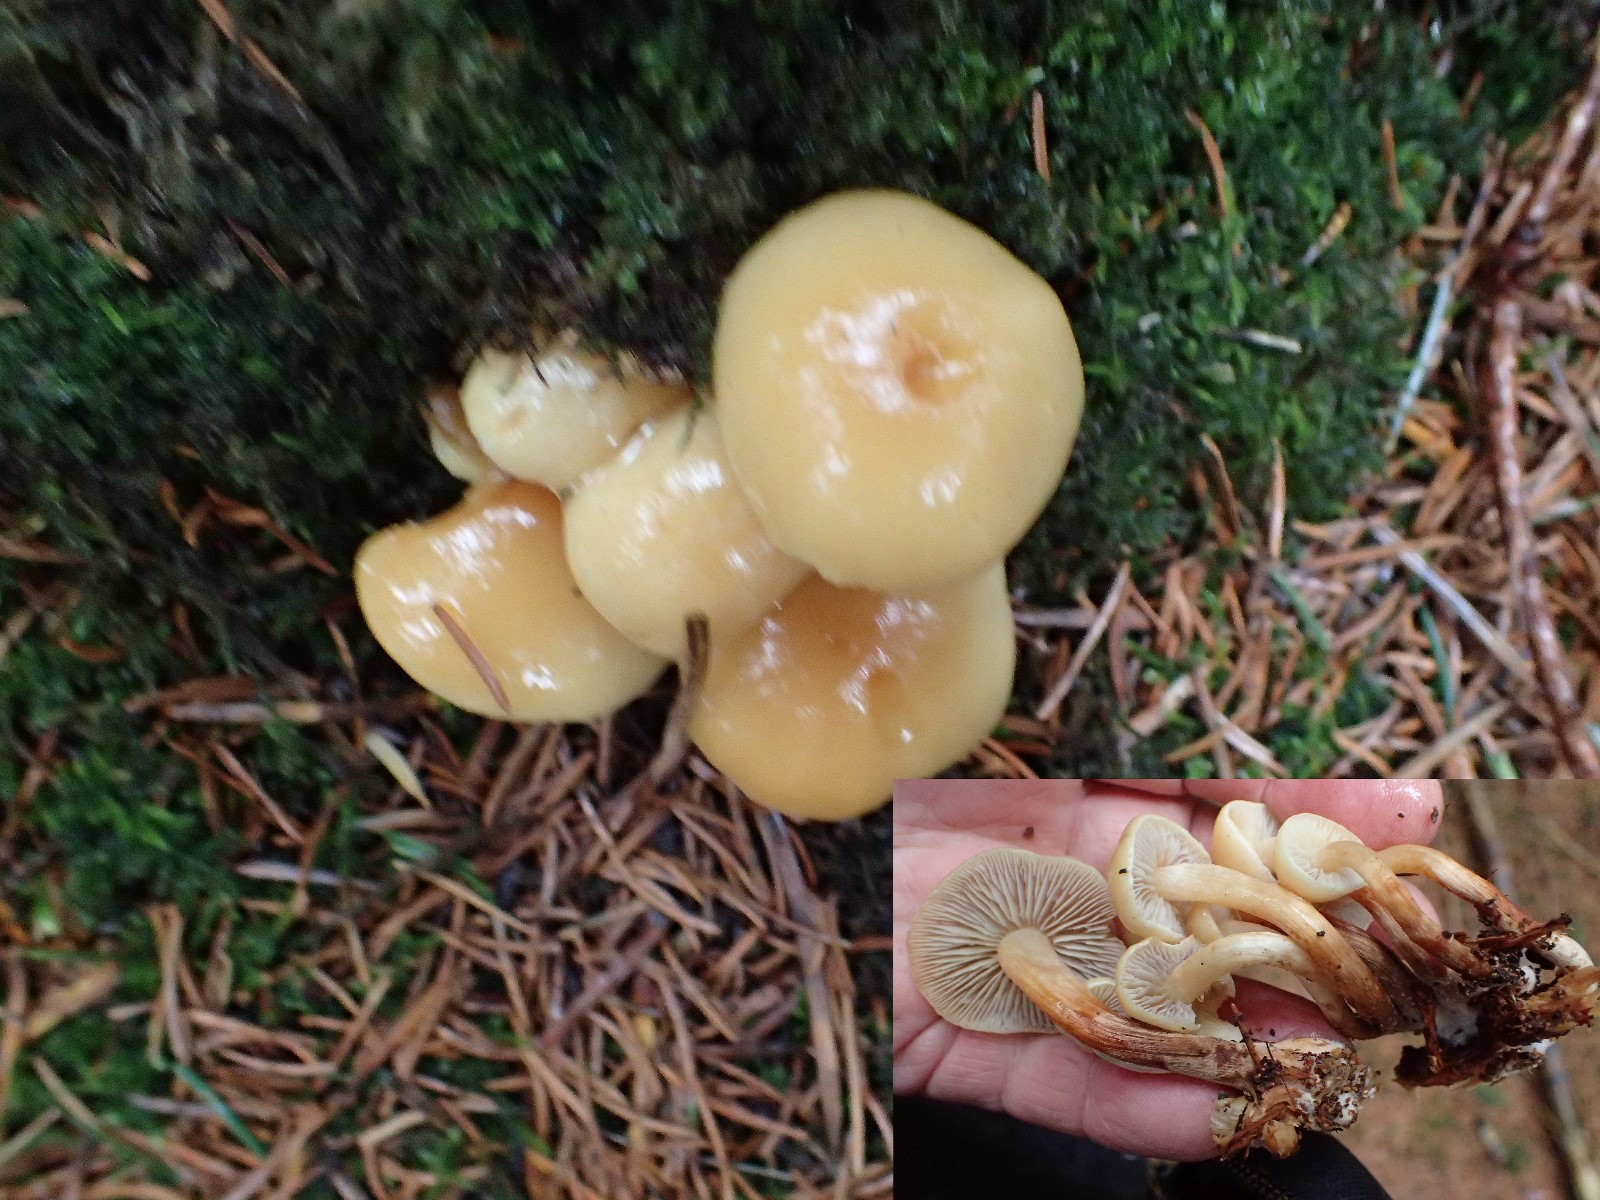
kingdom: Fungi
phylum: Basidiomycota
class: Agaricomycetes
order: Agaricales
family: Strophariaceae
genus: Hypholoma
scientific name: Hypholoma capnoides
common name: gran-svovlhat
